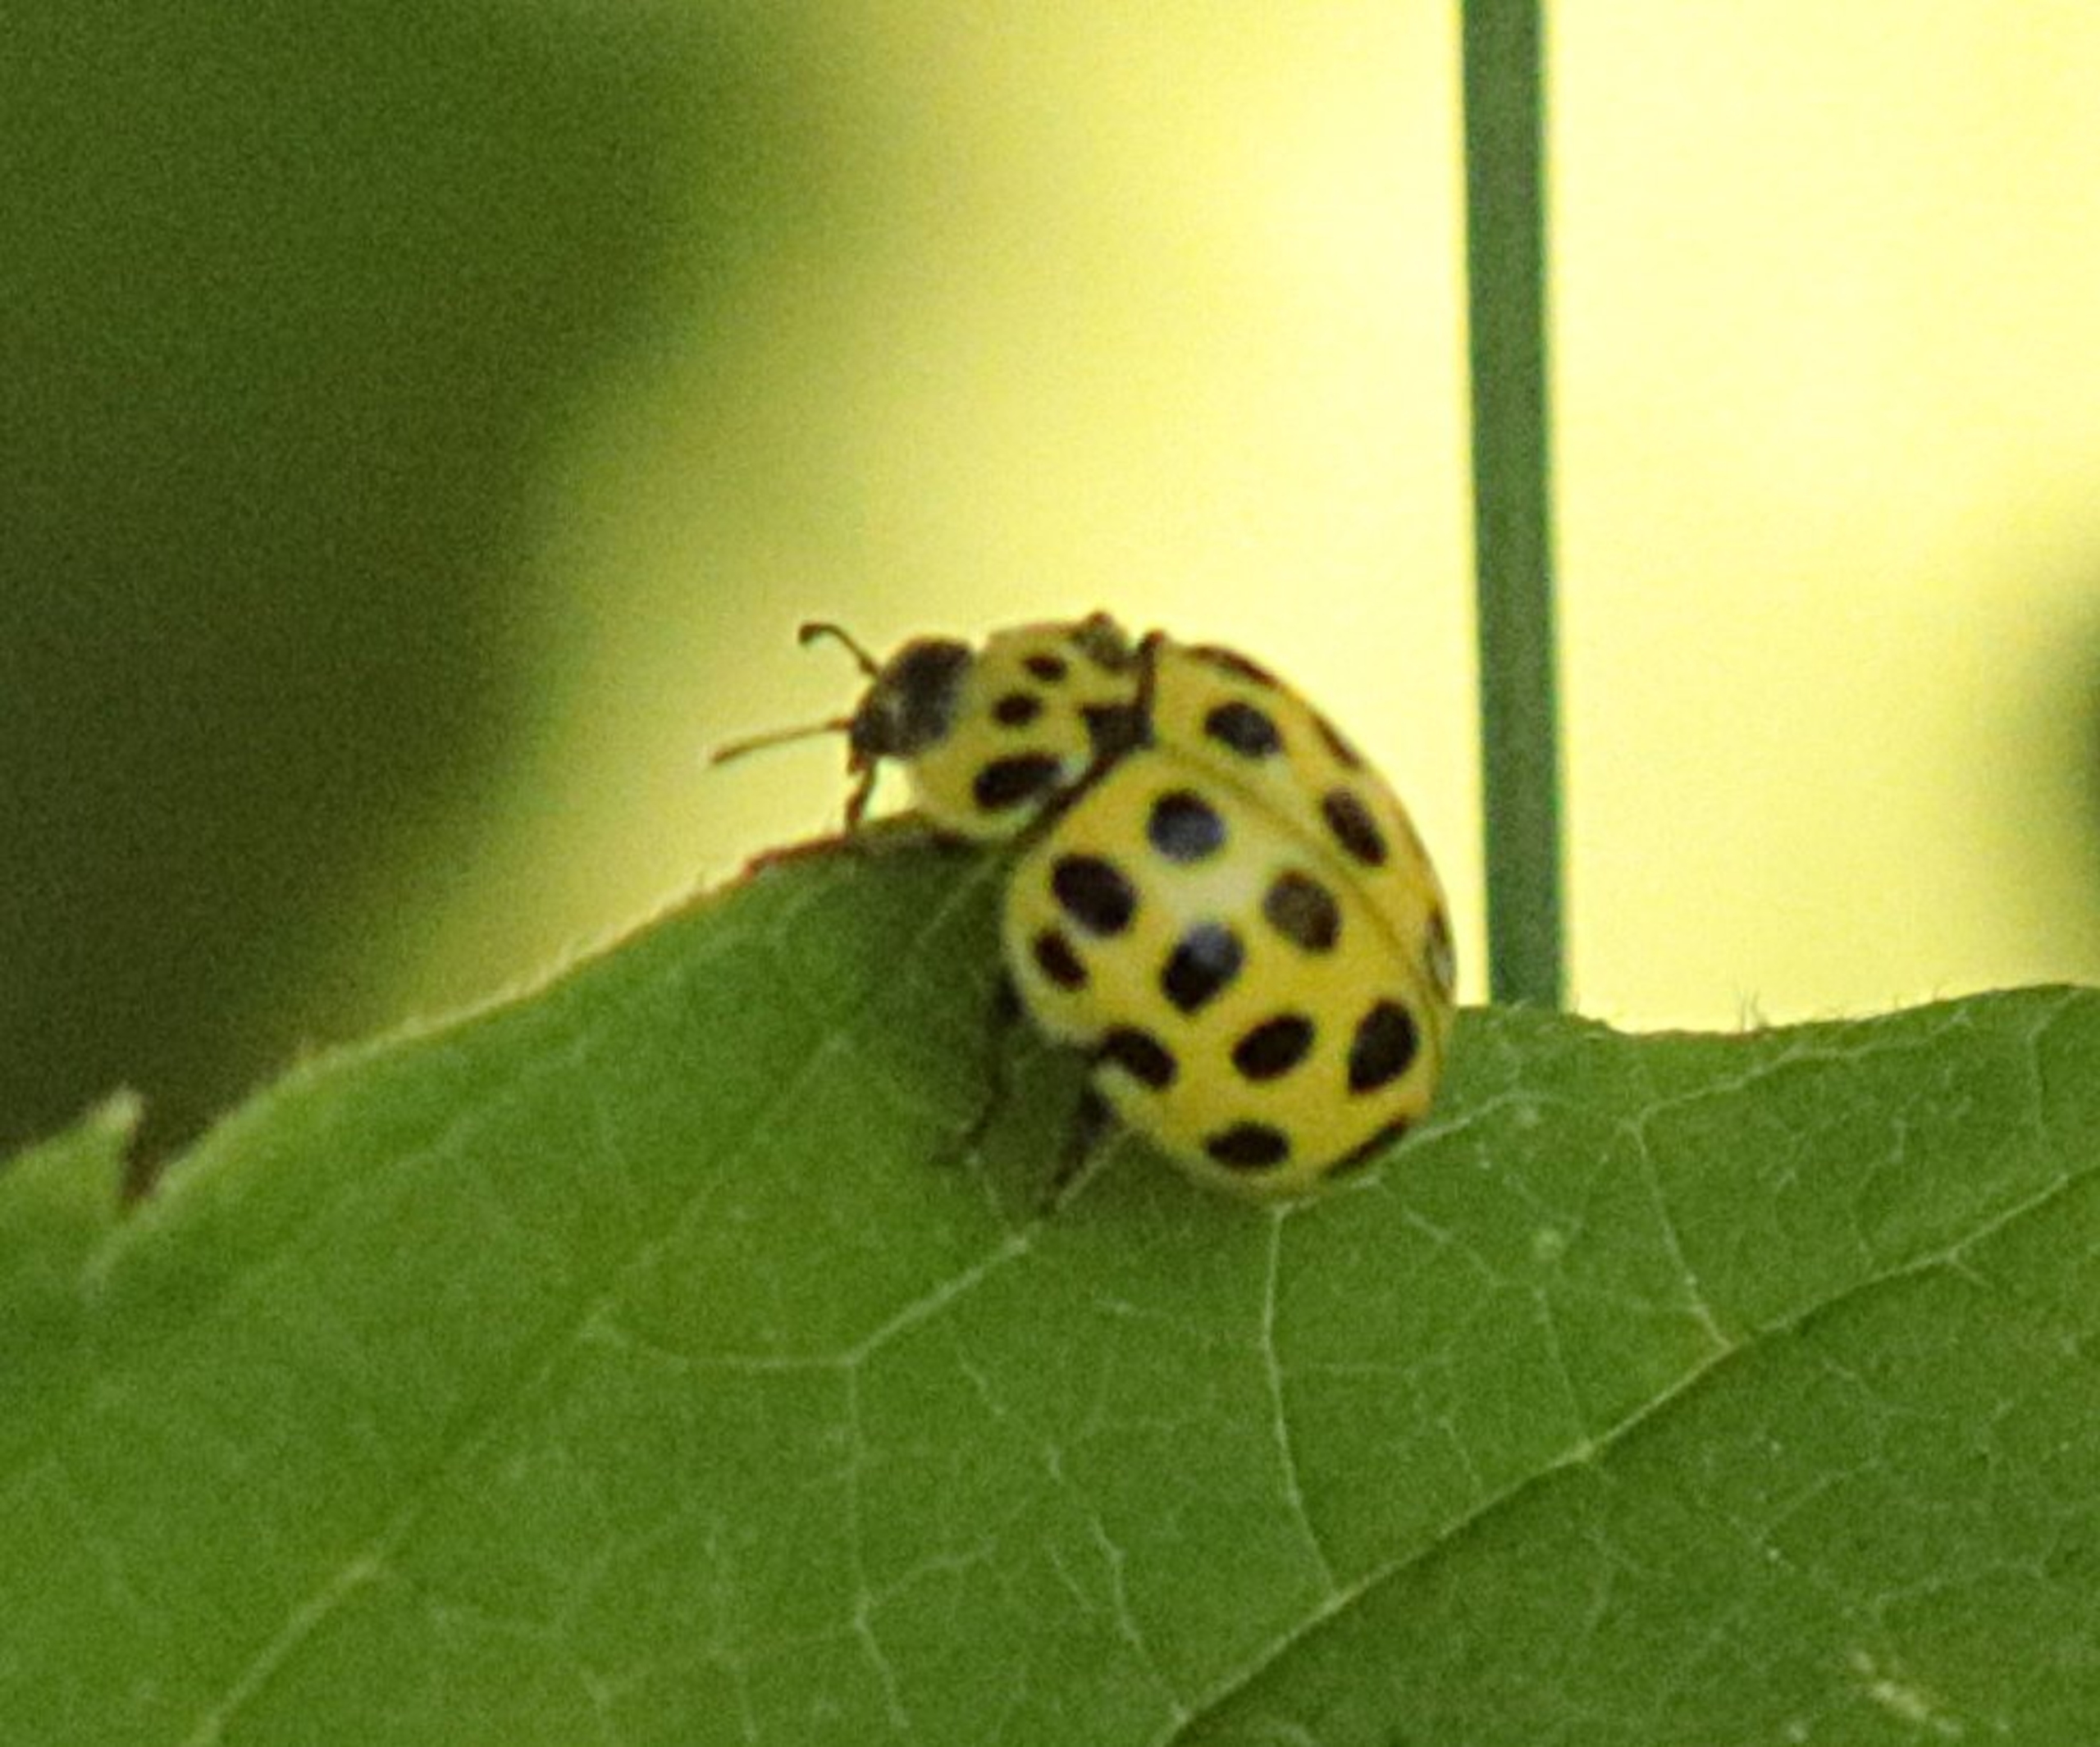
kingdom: Animalia
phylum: Arthropoda
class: Insecta
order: Coleoptera
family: Coccinellidae
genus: Psyllobora
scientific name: Psyllobora vigintiduopunctata
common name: Toogtyveplettet mariehøne
